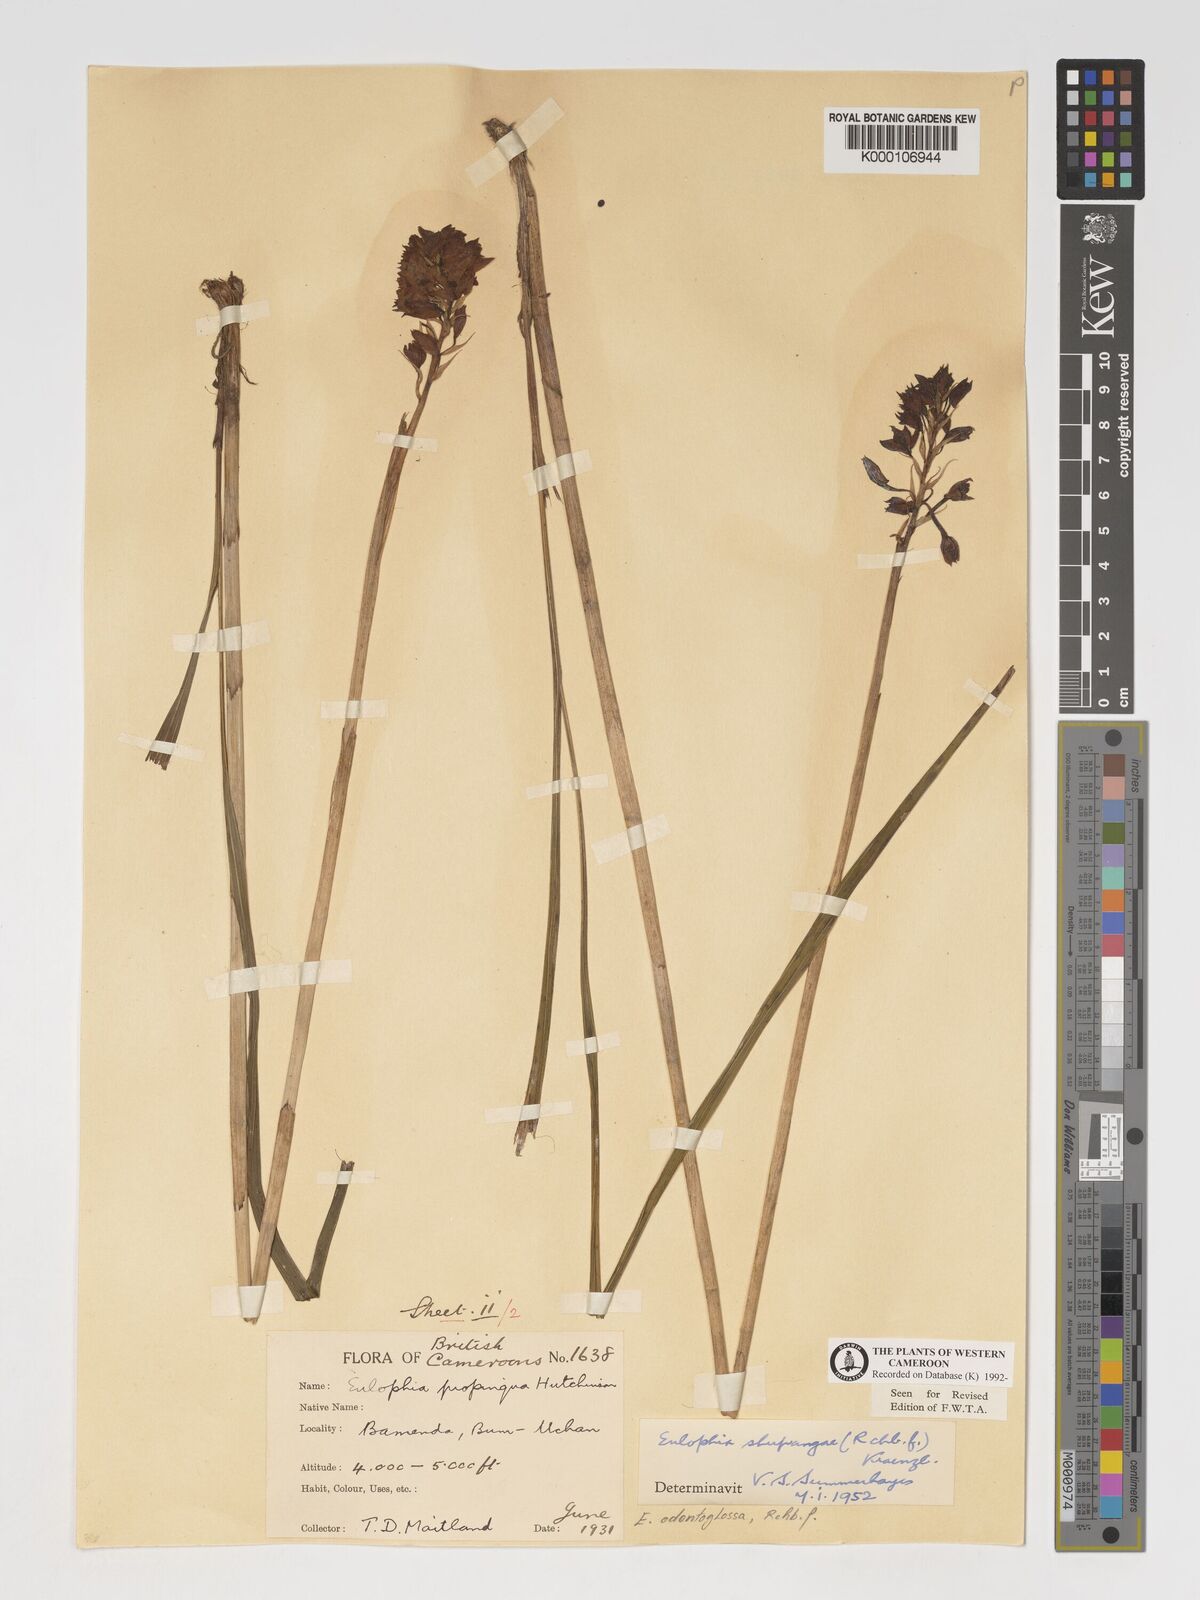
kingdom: Plantae
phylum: Tracheophyta
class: Liliopsida
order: Asparagales
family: Orchidaceae
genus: Eulophia
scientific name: Eulophia odontoglossa
